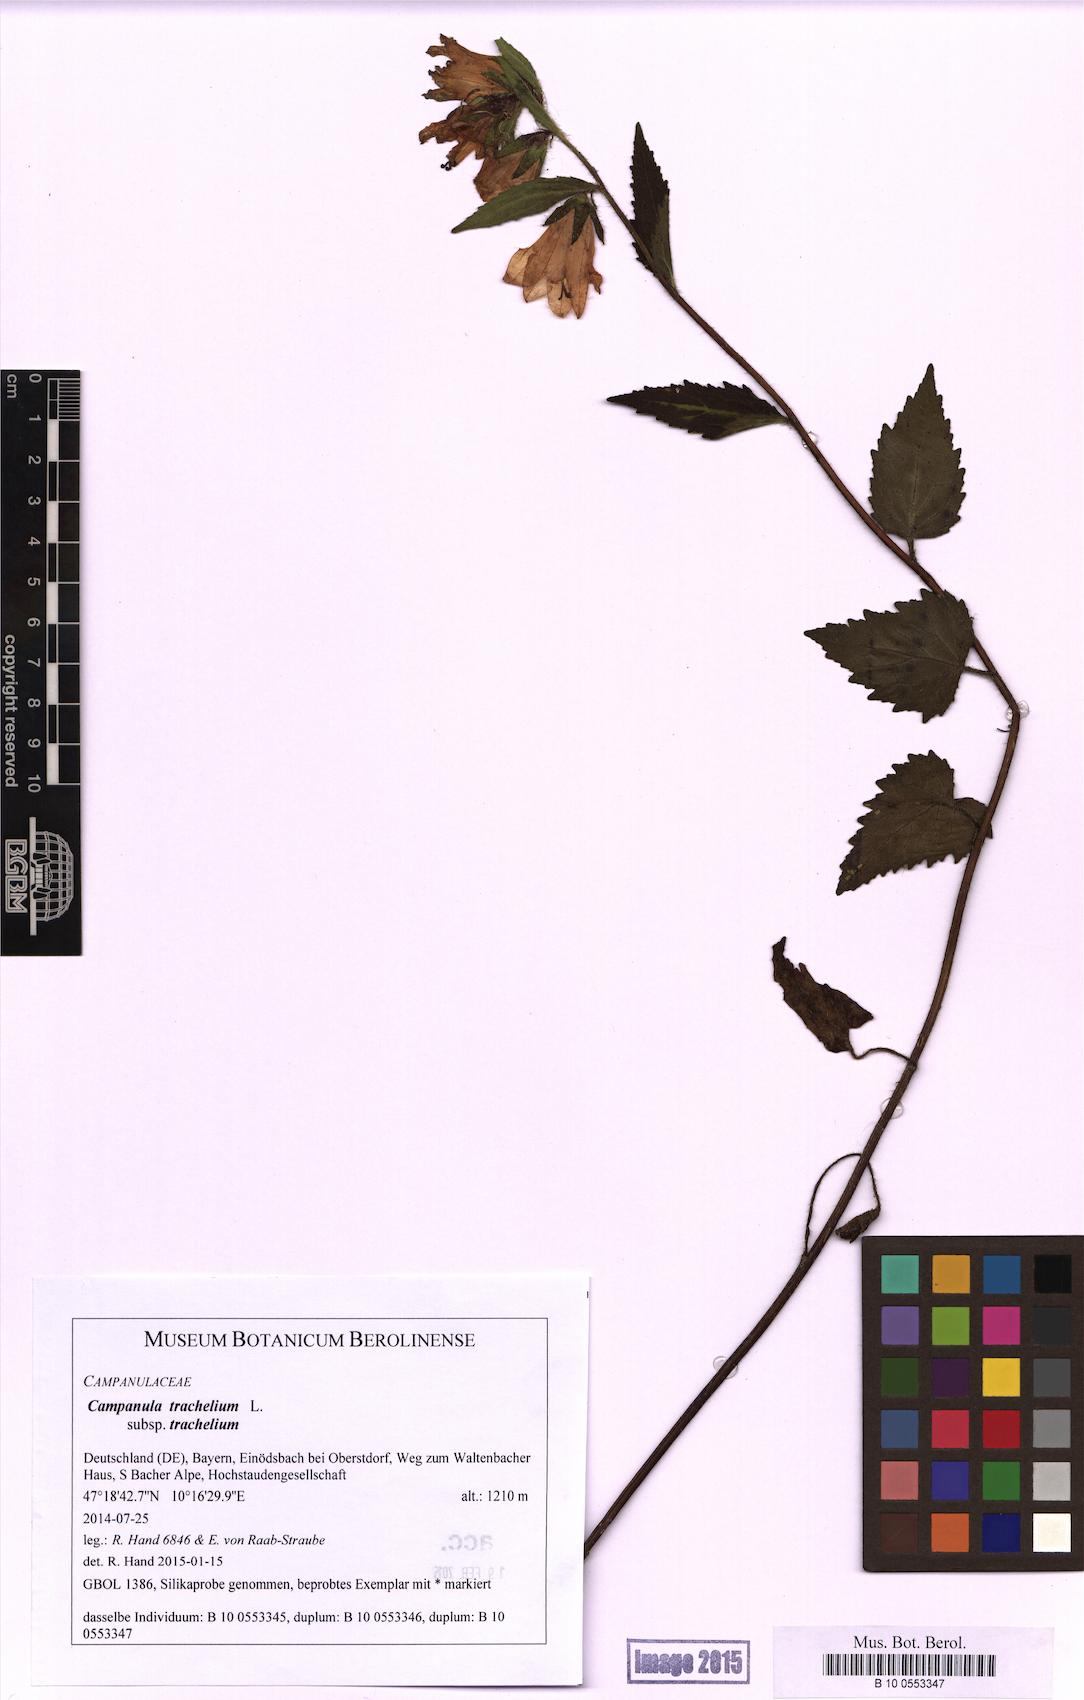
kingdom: Plantae
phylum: Tracheophyta
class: Magnoliopsida
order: Asterales
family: Campanulaceae
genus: Campanula
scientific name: Campanula trachelium
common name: Nettle-leaved bellflower
